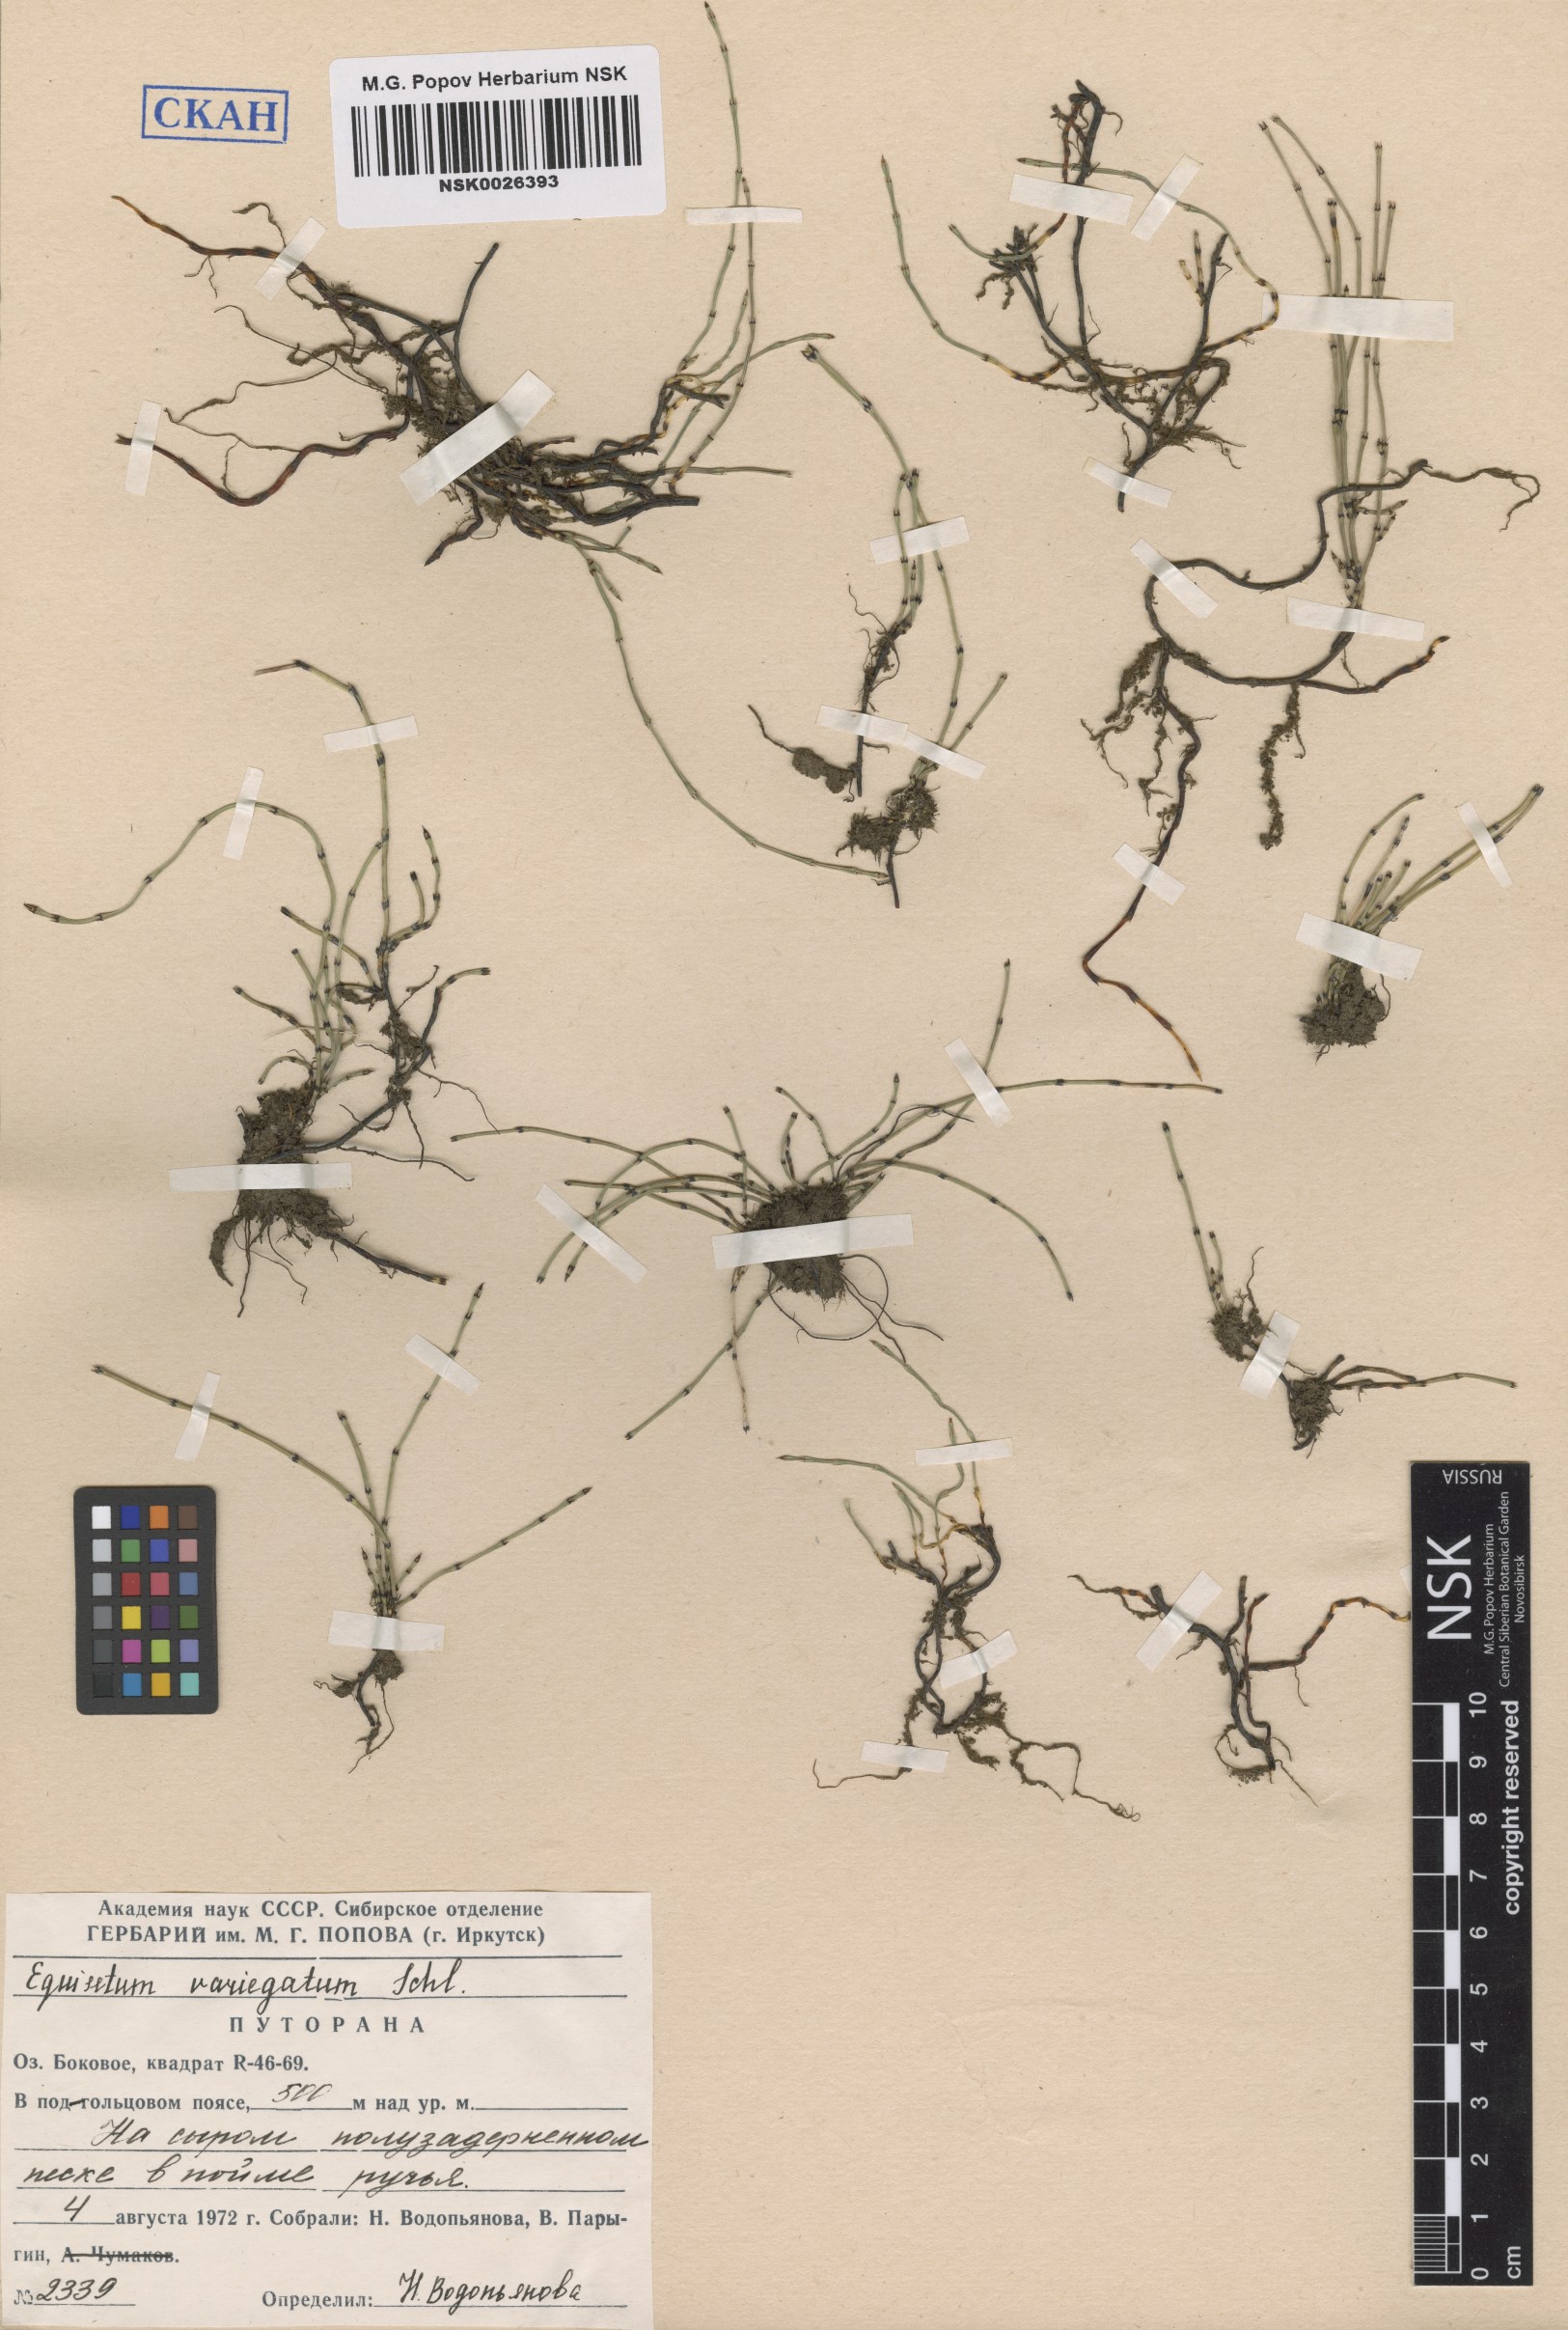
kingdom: Plantae
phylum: Tracheophyta
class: Polypodiopsida
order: Equisetales
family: Equisetaceae
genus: Equisetum
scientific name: Equisetum variegatum
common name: Variegated horsetail
